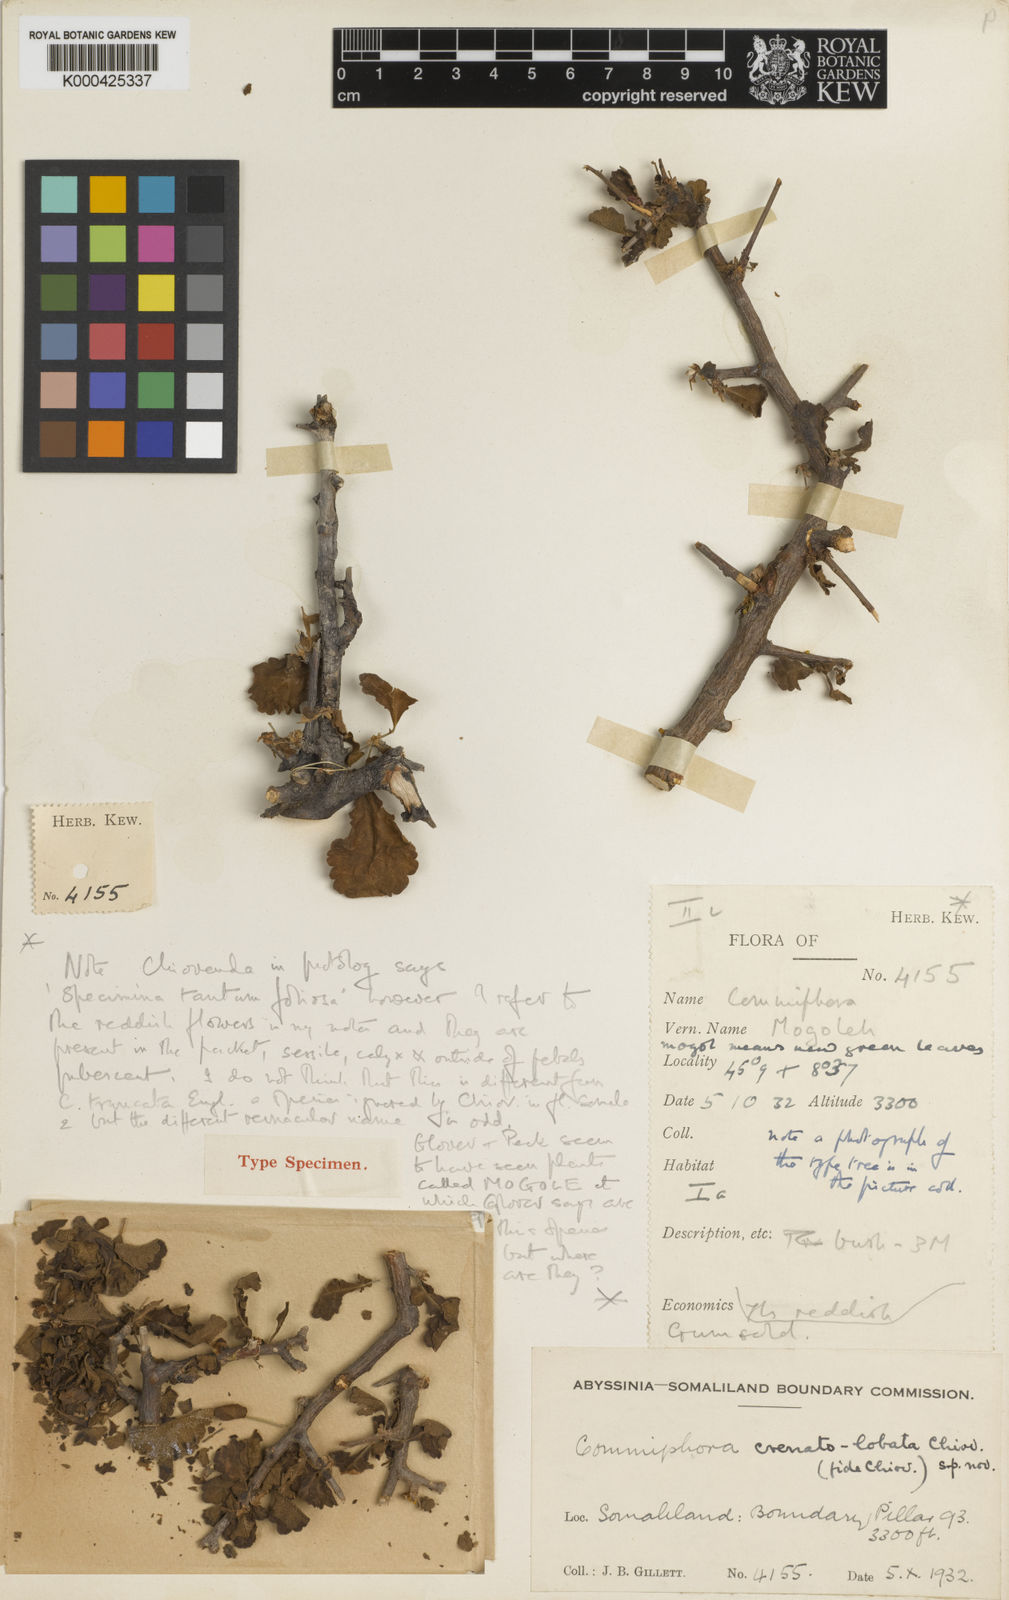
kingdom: Plantae
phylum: Tracheophyta
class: Magnoliopsida
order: Sapindales
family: Burseraceae
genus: Commiphora
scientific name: Commiphora truncata
